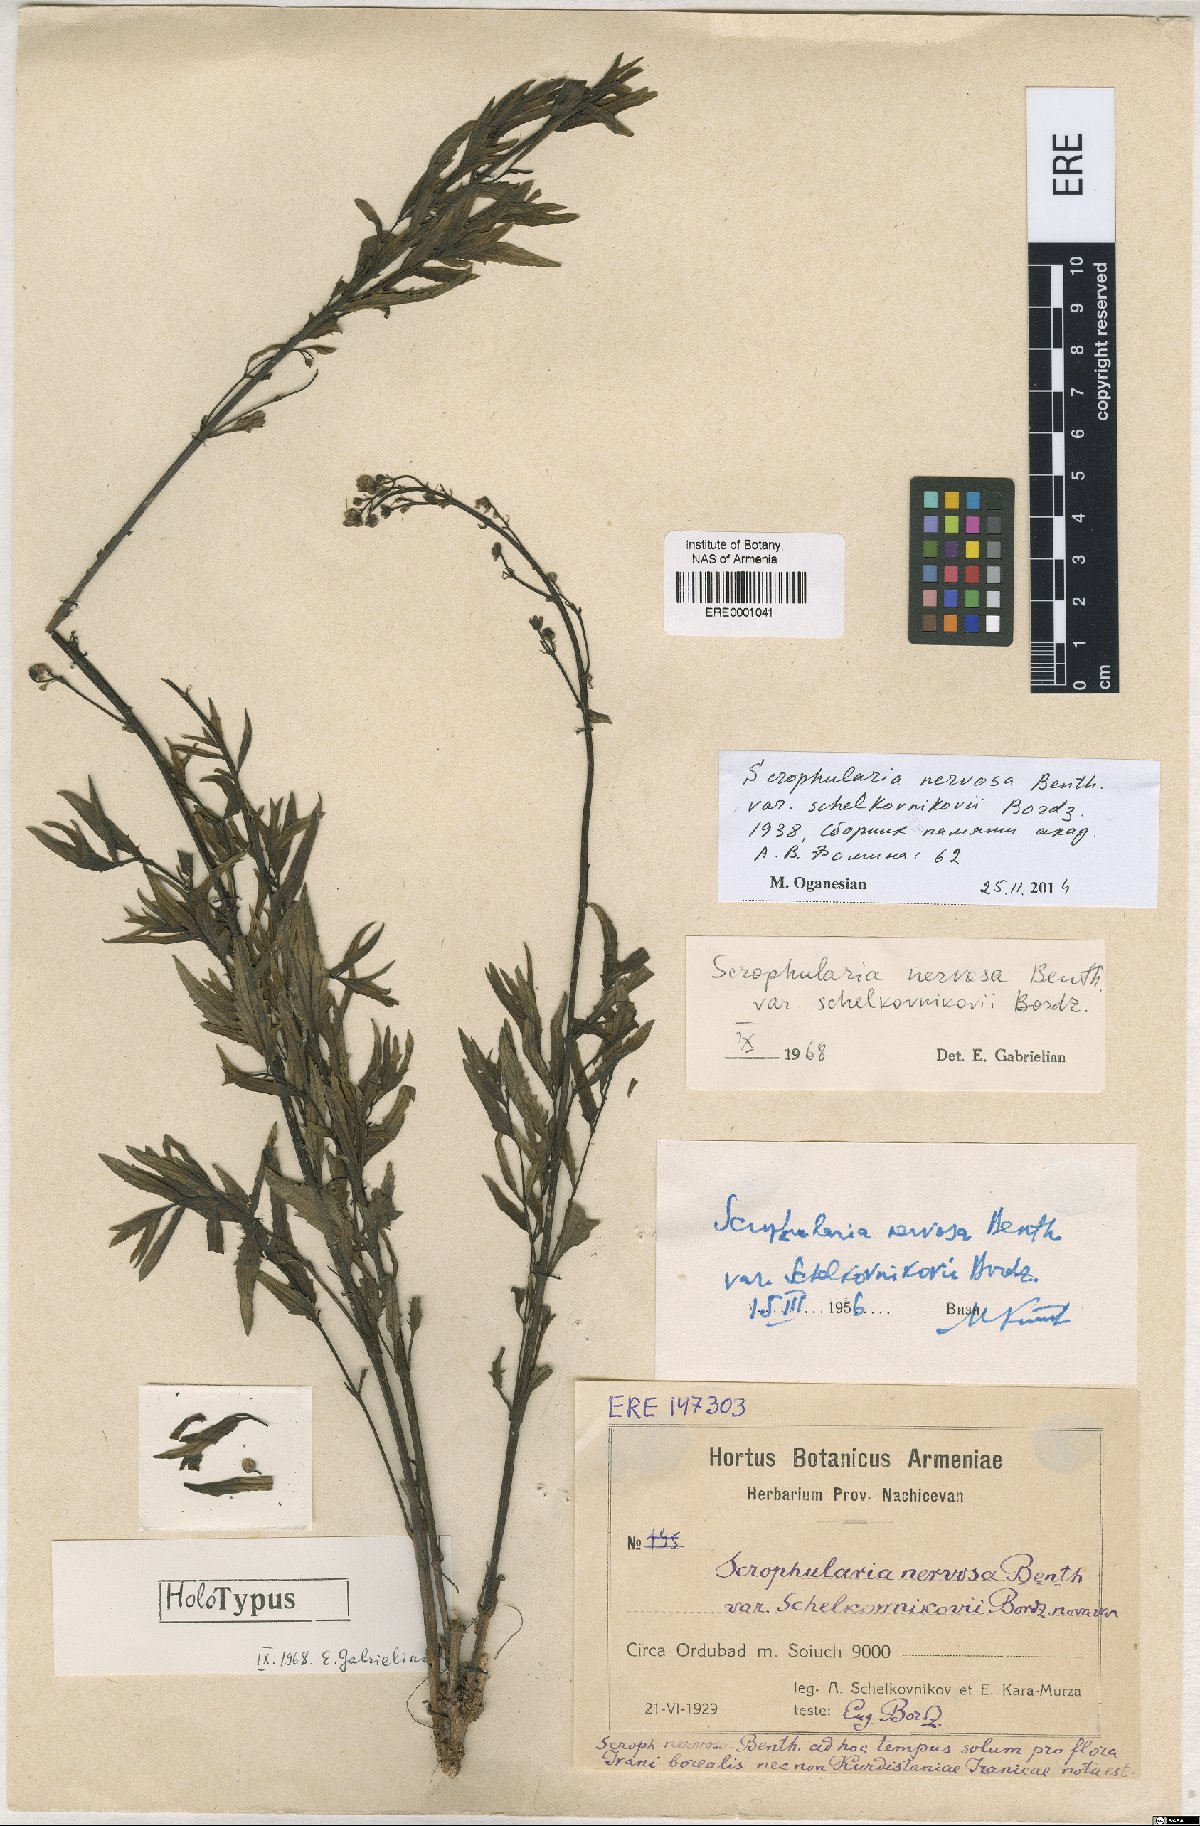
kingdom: Plantae
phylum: Tracheophyta
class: Magnoliopsida
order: Lamiales
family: Scrophulariaceae
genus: Scrophularia
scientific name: Scrophularia nervosa
